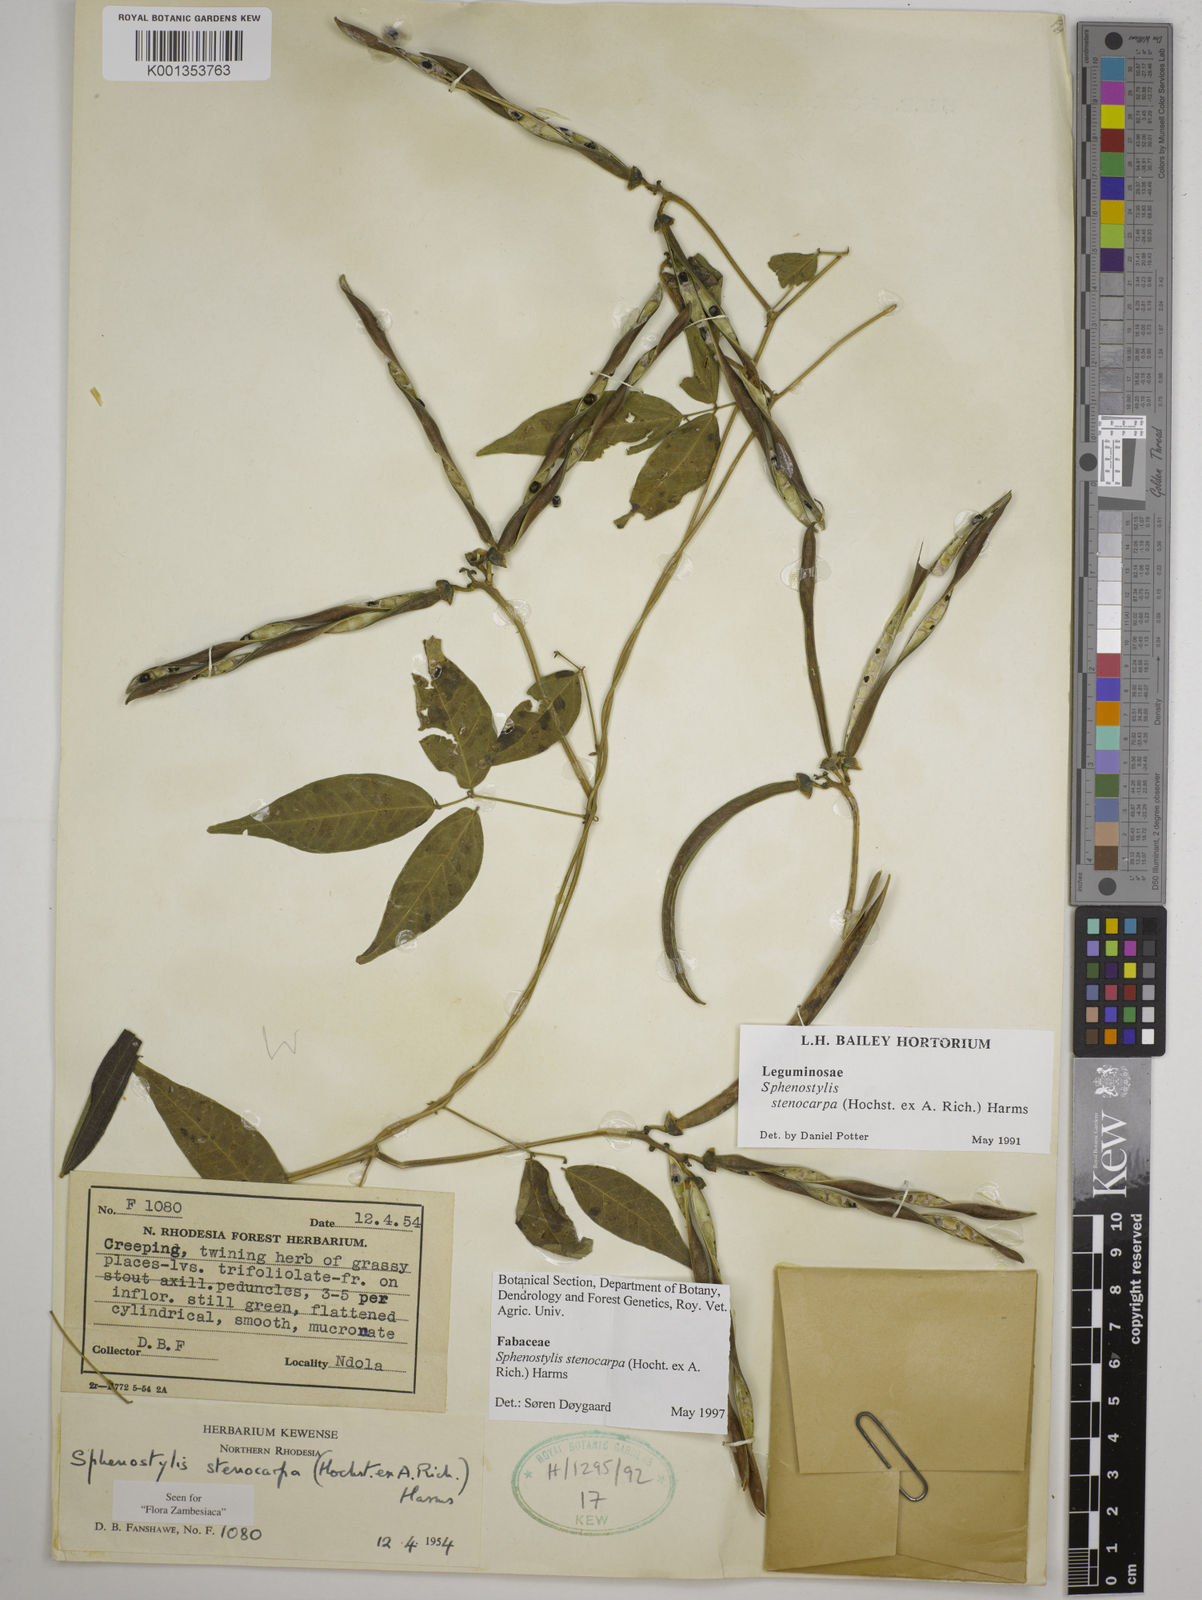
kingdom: Plantae
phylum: Tracheophyta
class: Magnoliopsida
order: Fabales
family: Fabaceae
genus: Sphenostylis
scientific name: Sphenostylis stenocarpa
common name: Yam-pea
